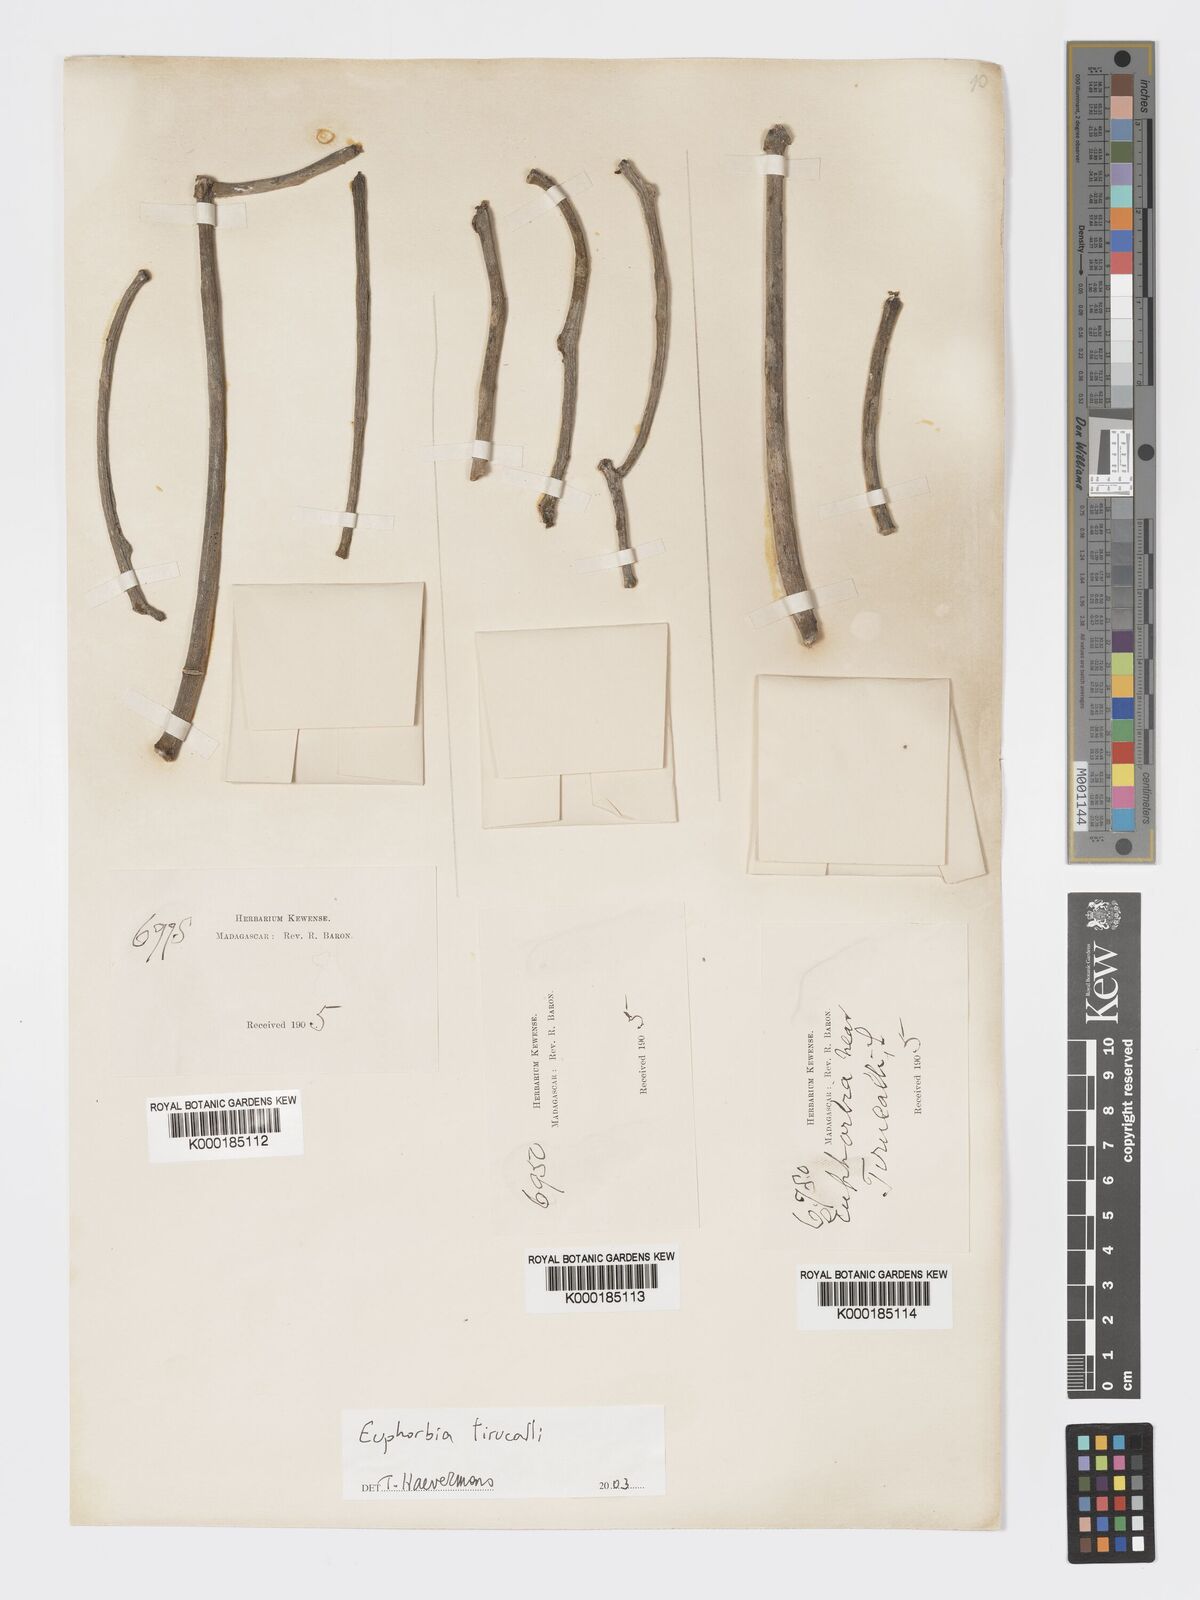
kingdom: Plantae
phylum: Tracheophyta
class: Magnoliopsida
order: Malpighiales
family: Euphorbiaceae
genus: Euphorbia
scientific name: Euphorbia tirucalli
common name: Indiantree spurge
